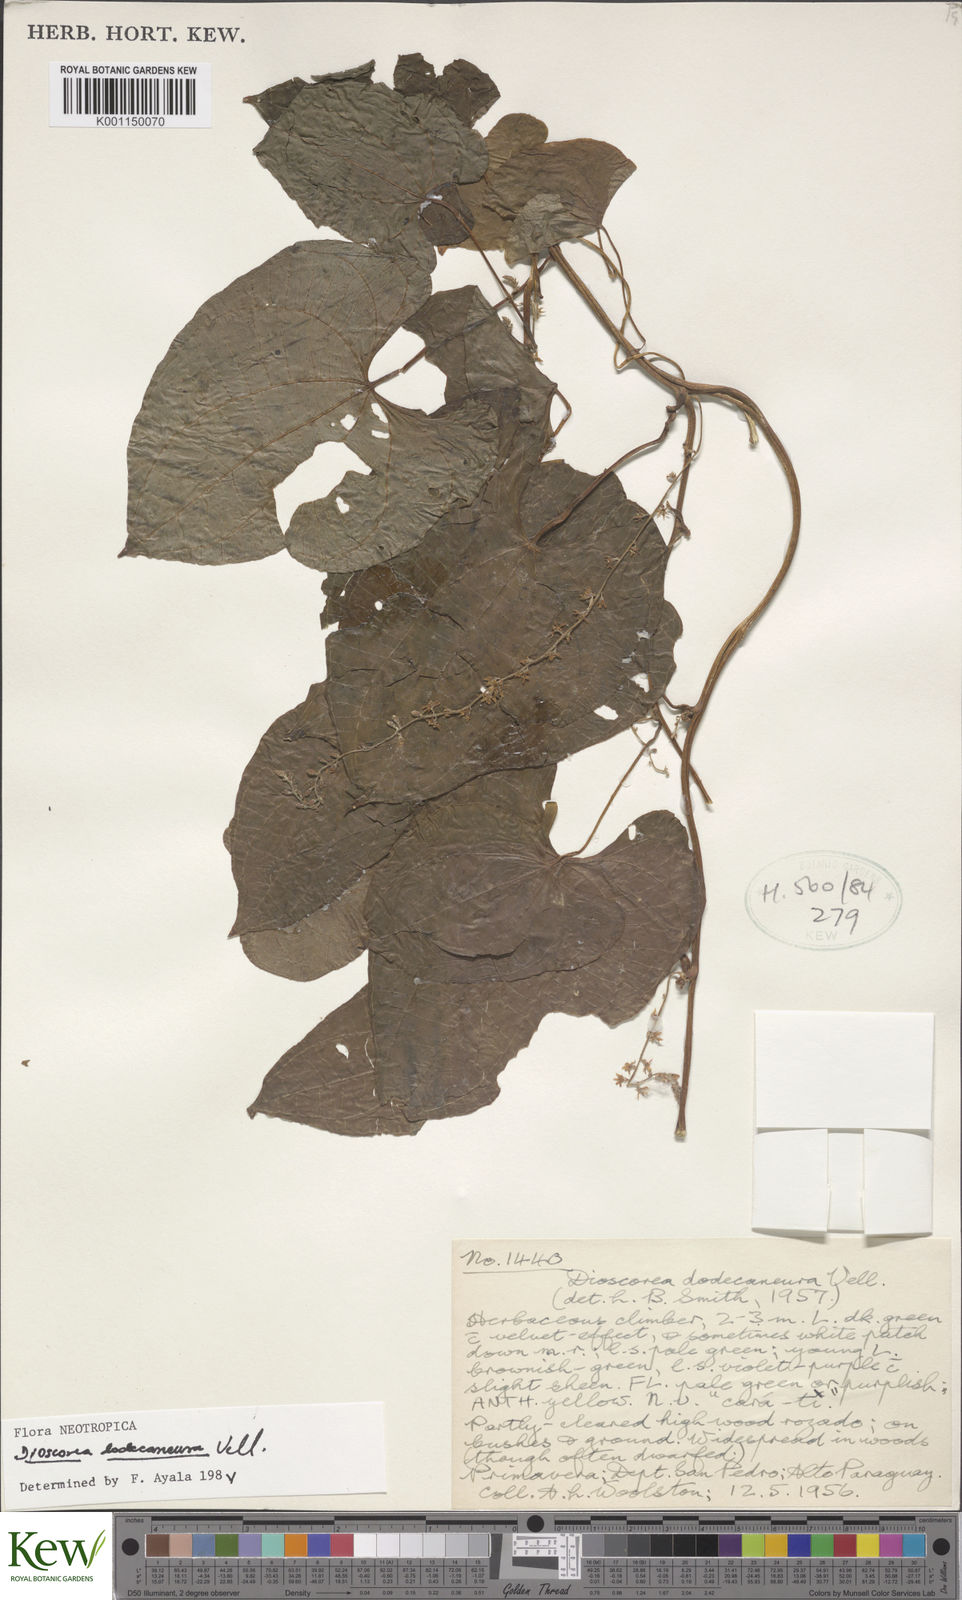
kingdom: Plantae
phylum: Tracheophyta
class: Liliopsida
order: Dioscoreales
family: Dioscoreaceae
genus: Dioscorea
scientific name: Dioscorea dodecaneura
